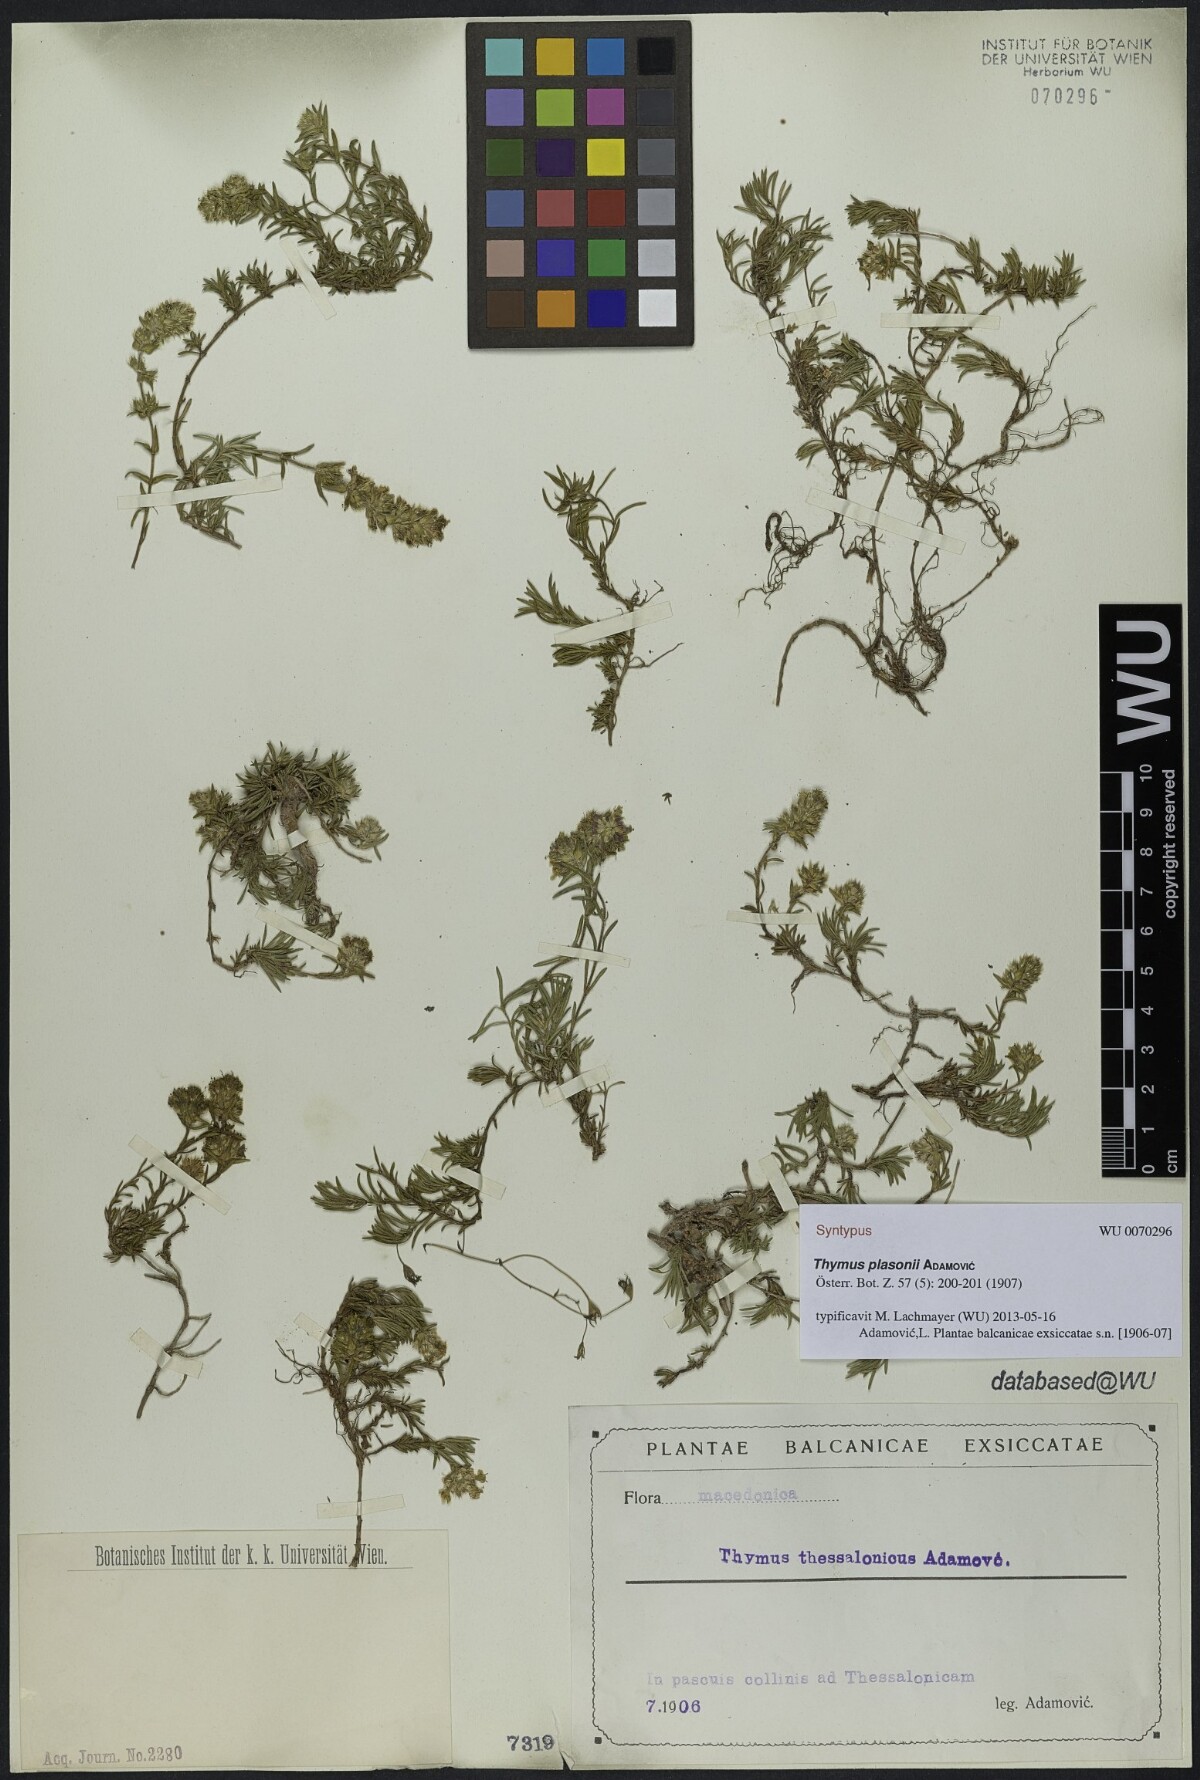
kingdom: Plantae
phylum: Tracheophyta
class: Magnoliopsida
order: Lamiales
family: Lamiaceae
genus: Thymus
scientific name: Thymus plasonii
